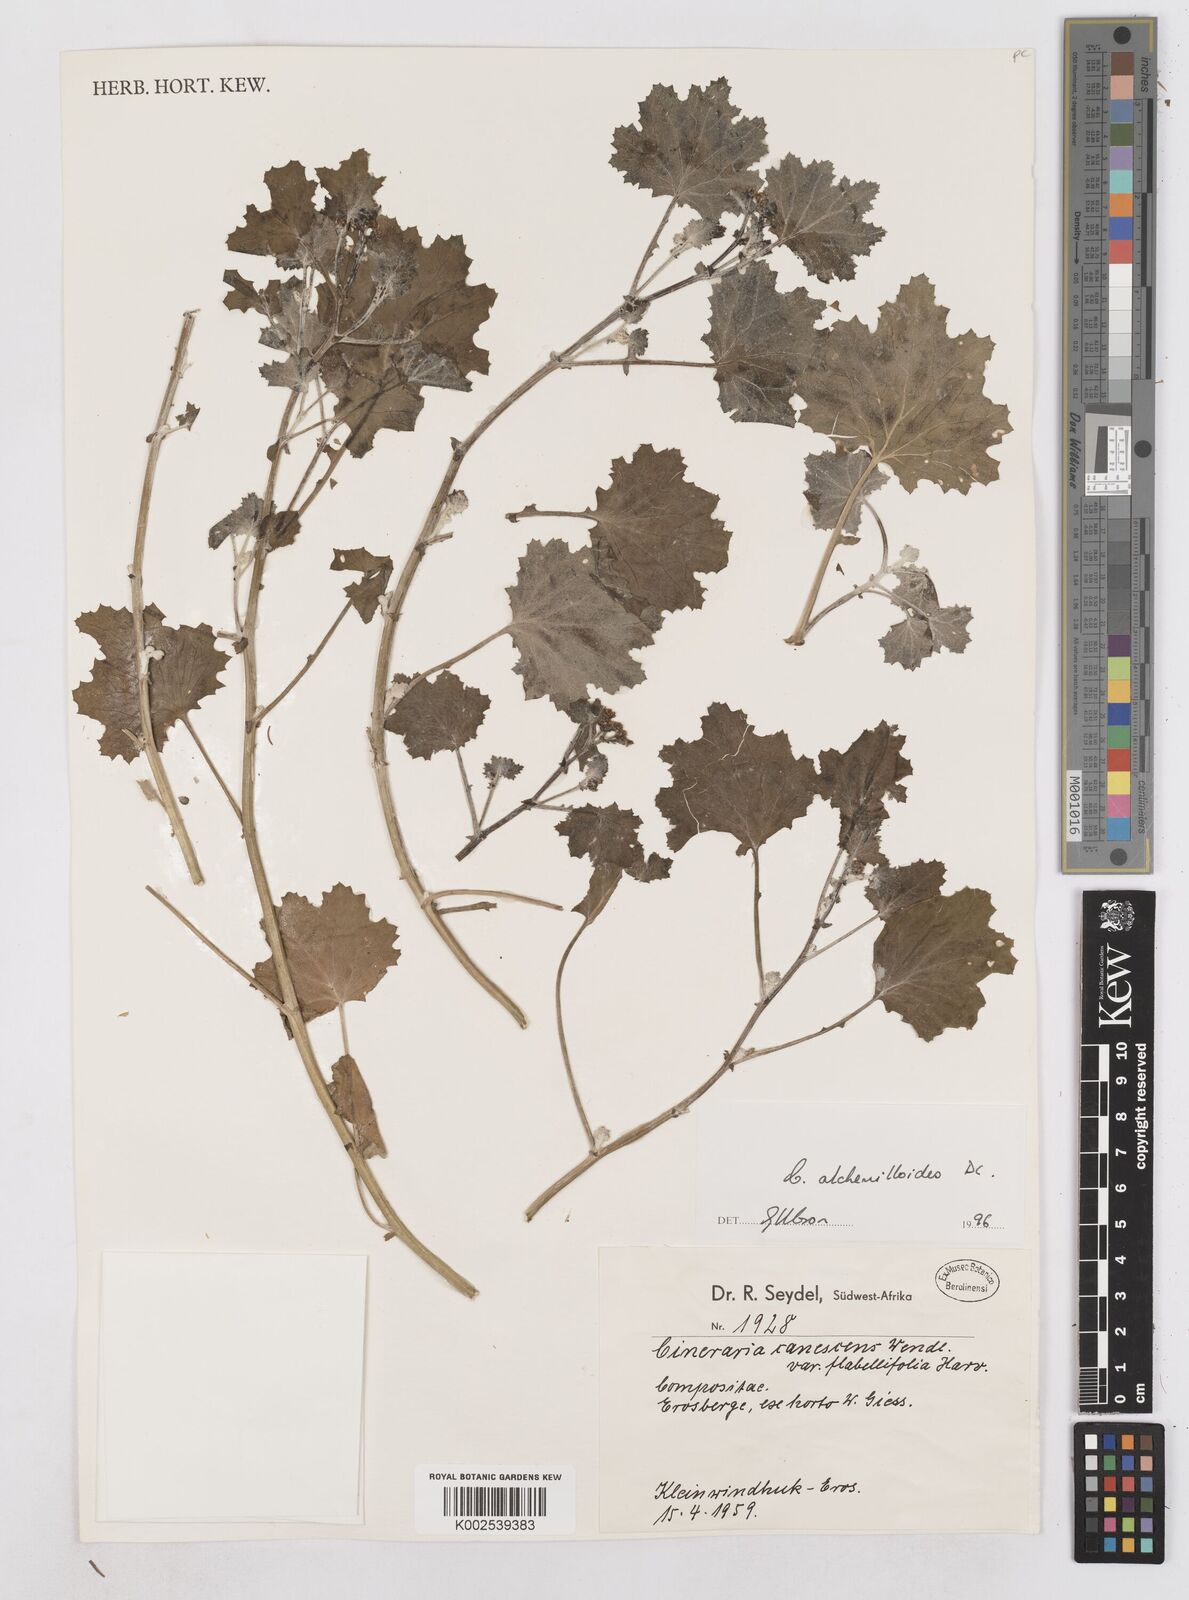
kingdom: Plantae
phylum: Tracheophyta
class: Magnoliopsida
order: Asterales
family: Asteraceae
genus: Cineraria
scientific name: Cineraria alchemilloides
